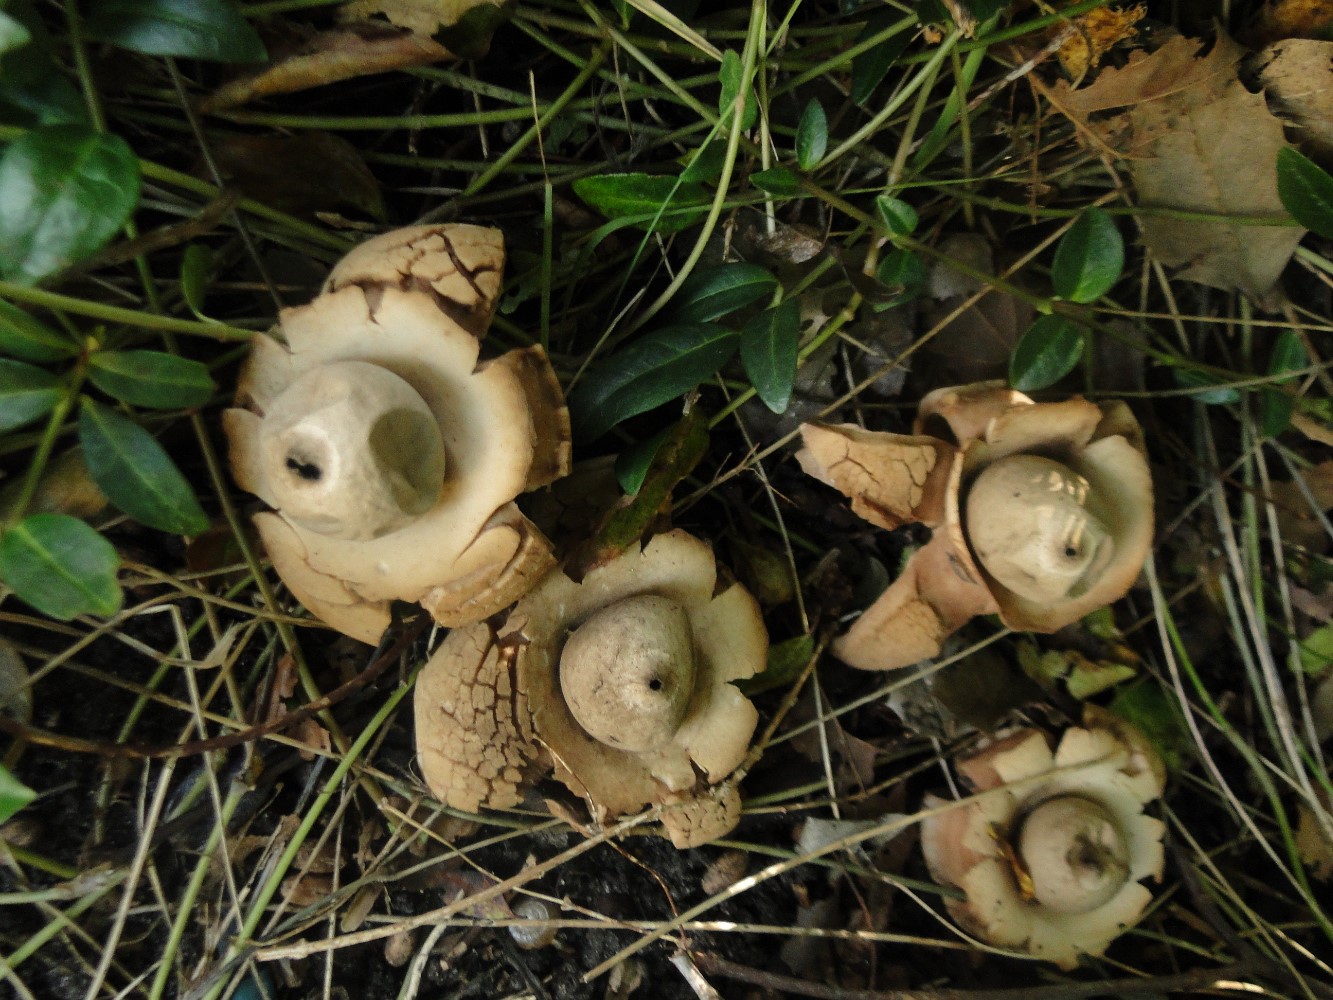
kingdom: Fungi
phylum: Basidiomycota
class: Agaricomycetes
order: Geastrales
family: Geastraceae
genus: Geastrum
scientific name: Geastrum michelianum
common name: kødet stjernebold
